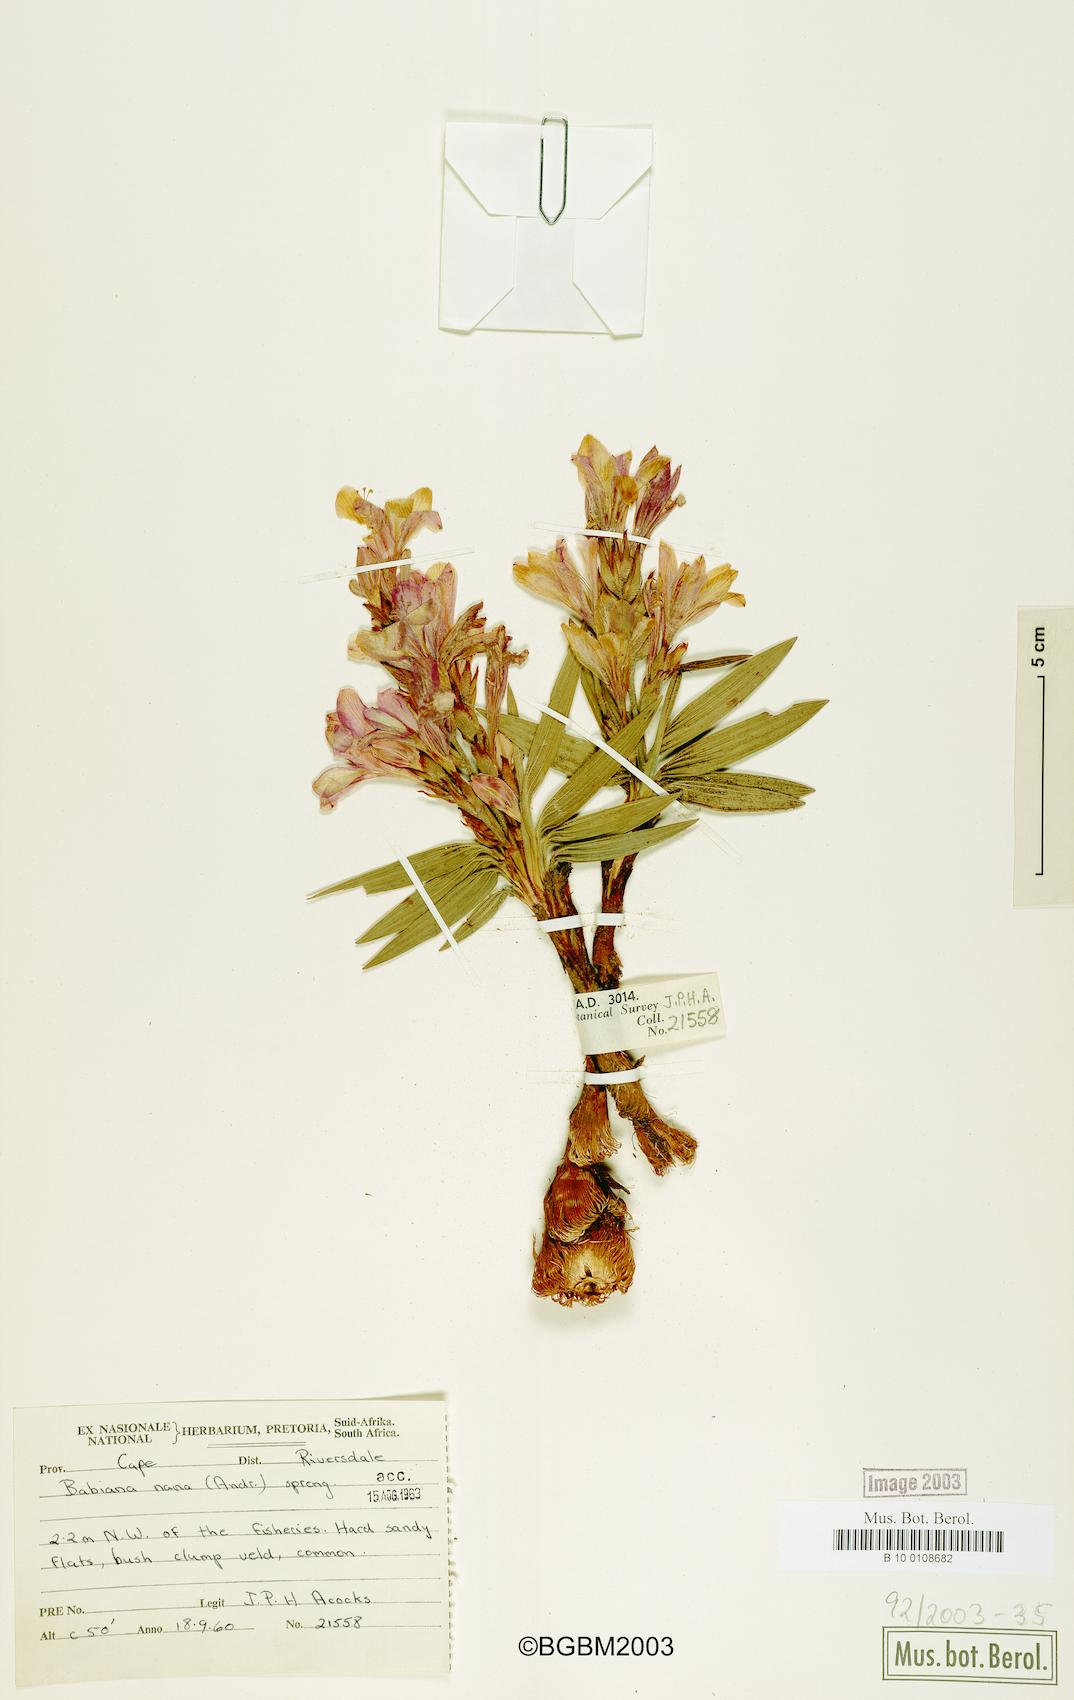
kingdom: Plantae
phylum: Tracheophyta
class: Liliopsida
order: Asparagales
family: Iridaceae
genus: Babiana
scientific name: Babiana nana
